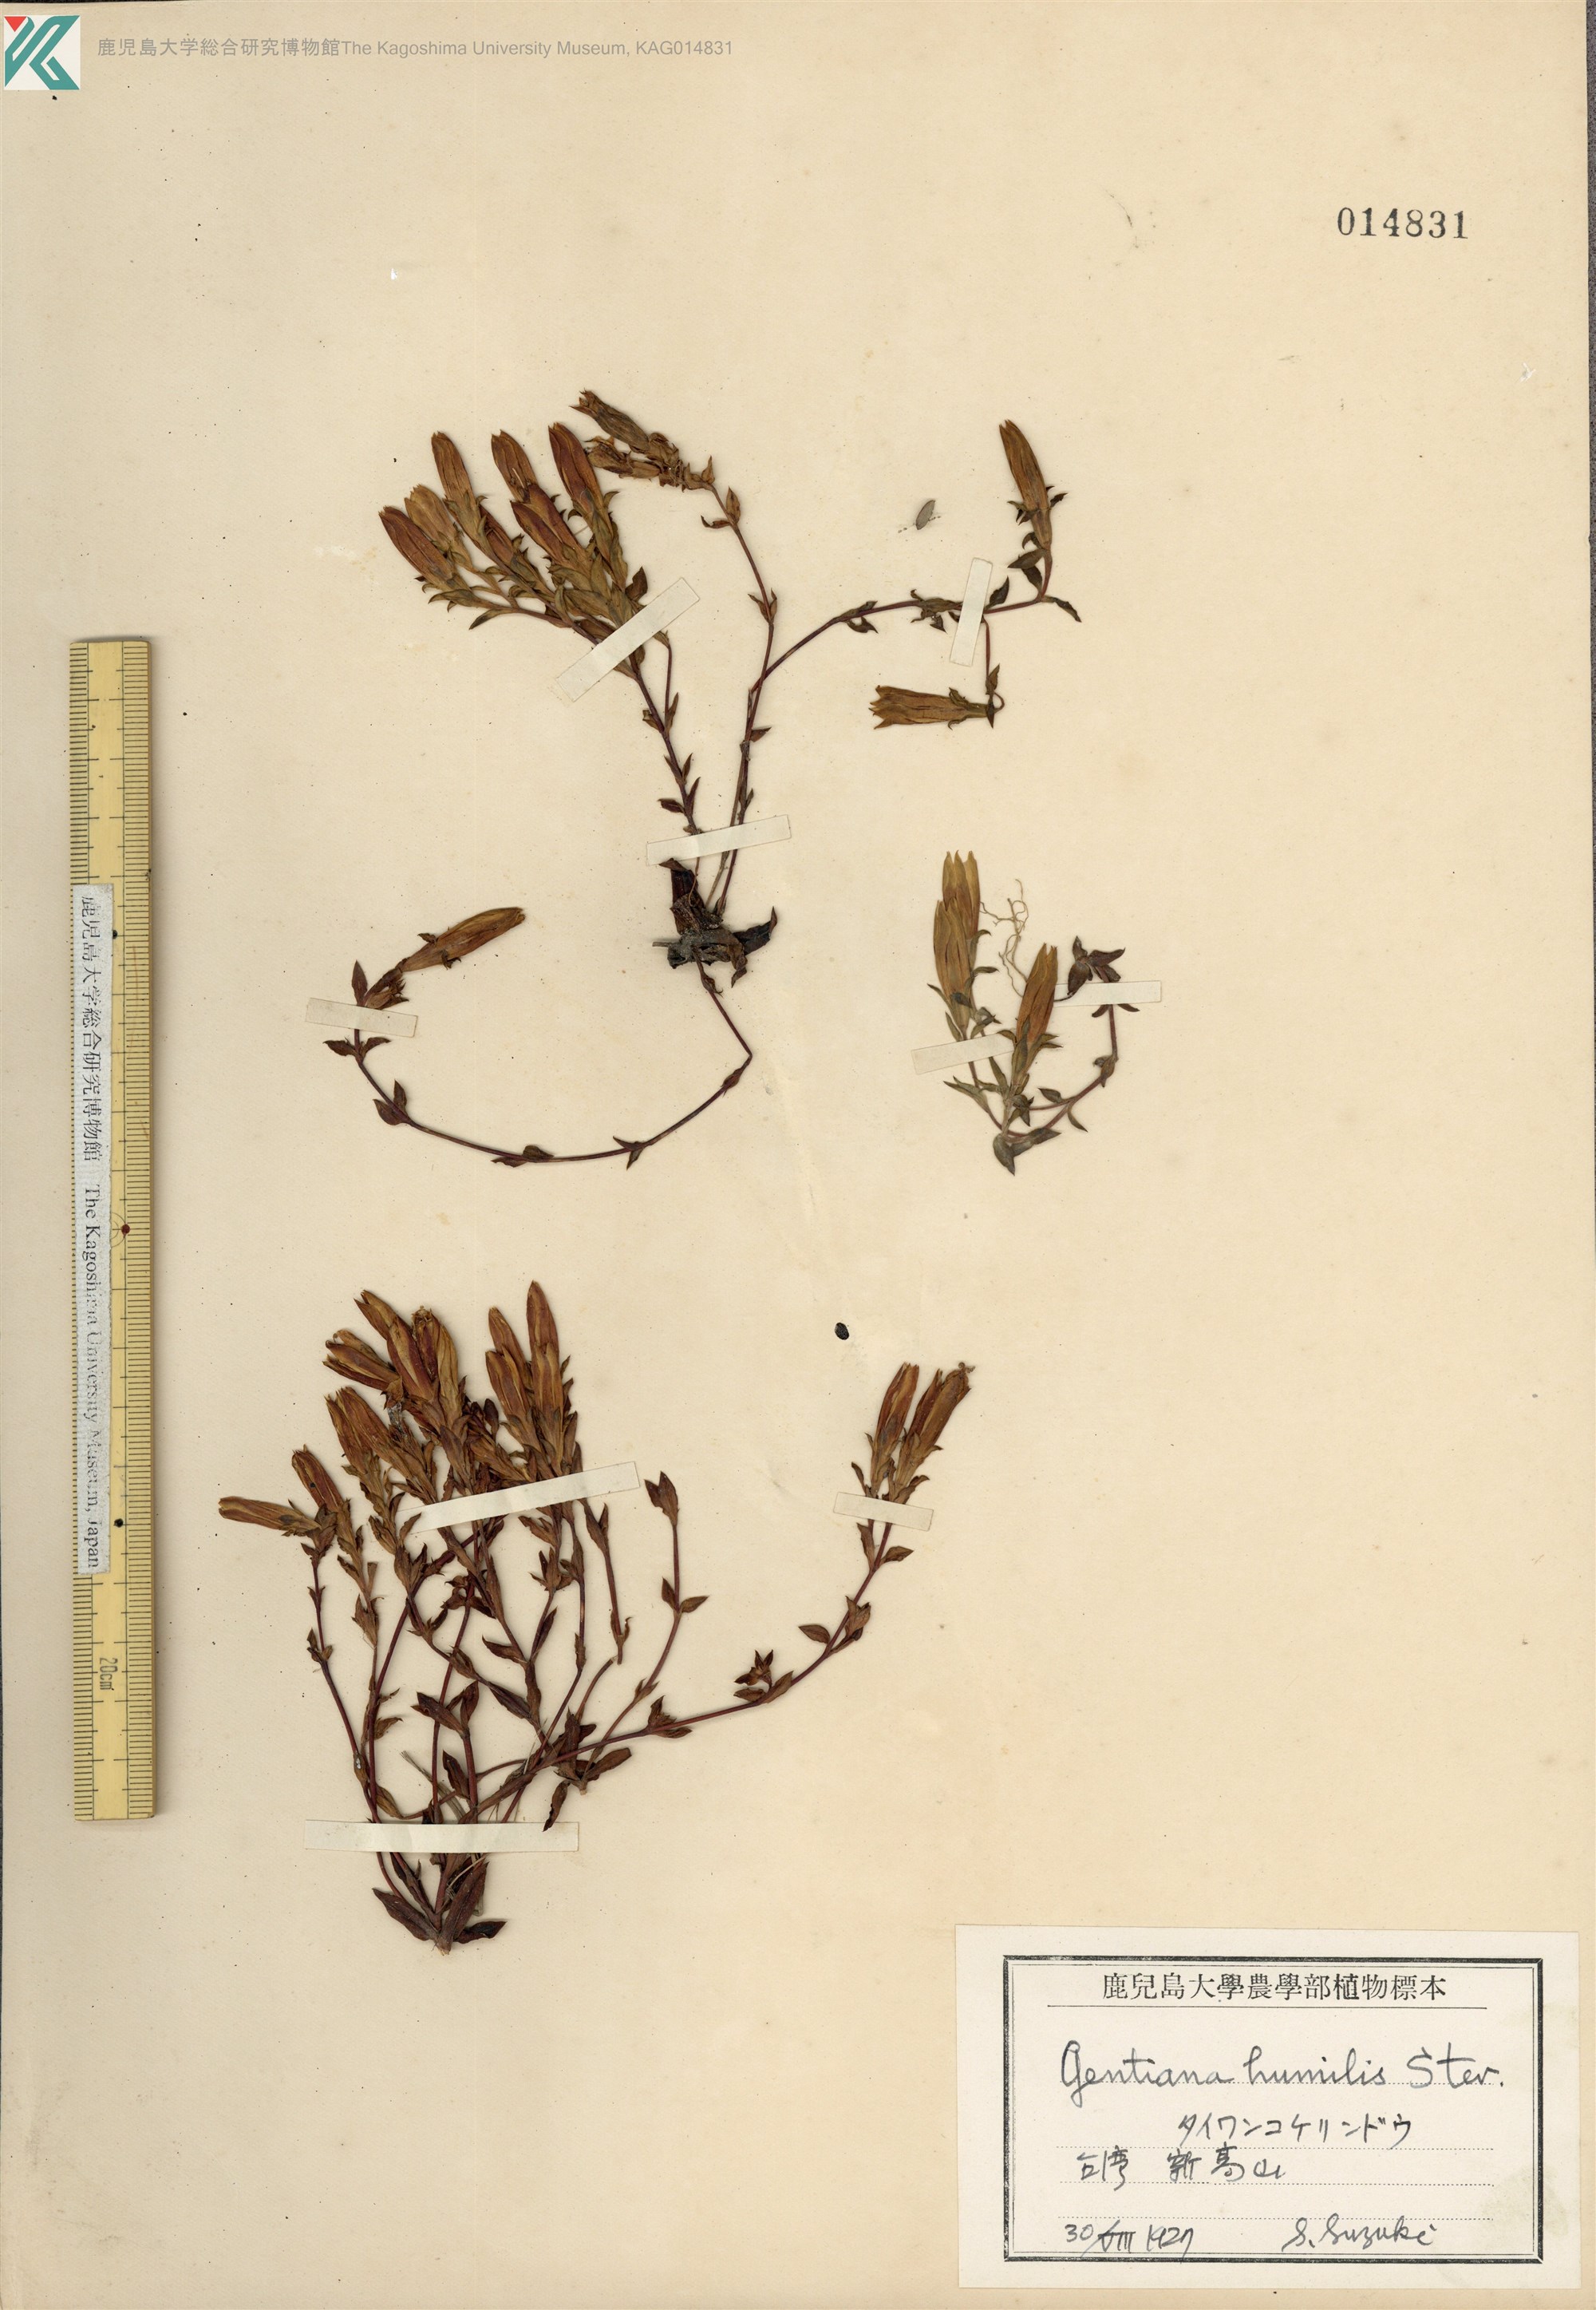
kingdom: Plantae
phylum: Tracheophyta
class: Magnoliopsida
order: Gentianales
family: Gentianaceae
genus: Gentiana
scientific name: Gentiana aquatica
